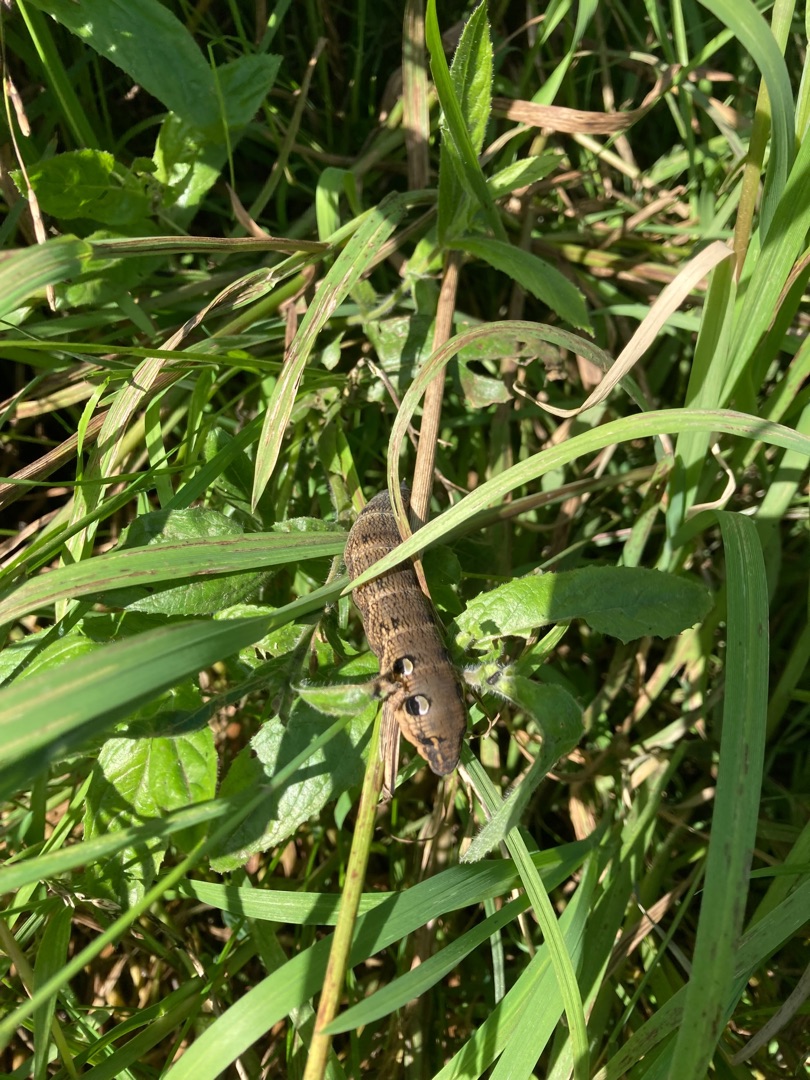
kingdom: Animalia
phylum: Arthropoda
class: Insecta
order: Lepidoptera
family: Sphingidae
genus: Deilephila
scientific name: Deilephila elpenor
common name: Dueurtsværmer
